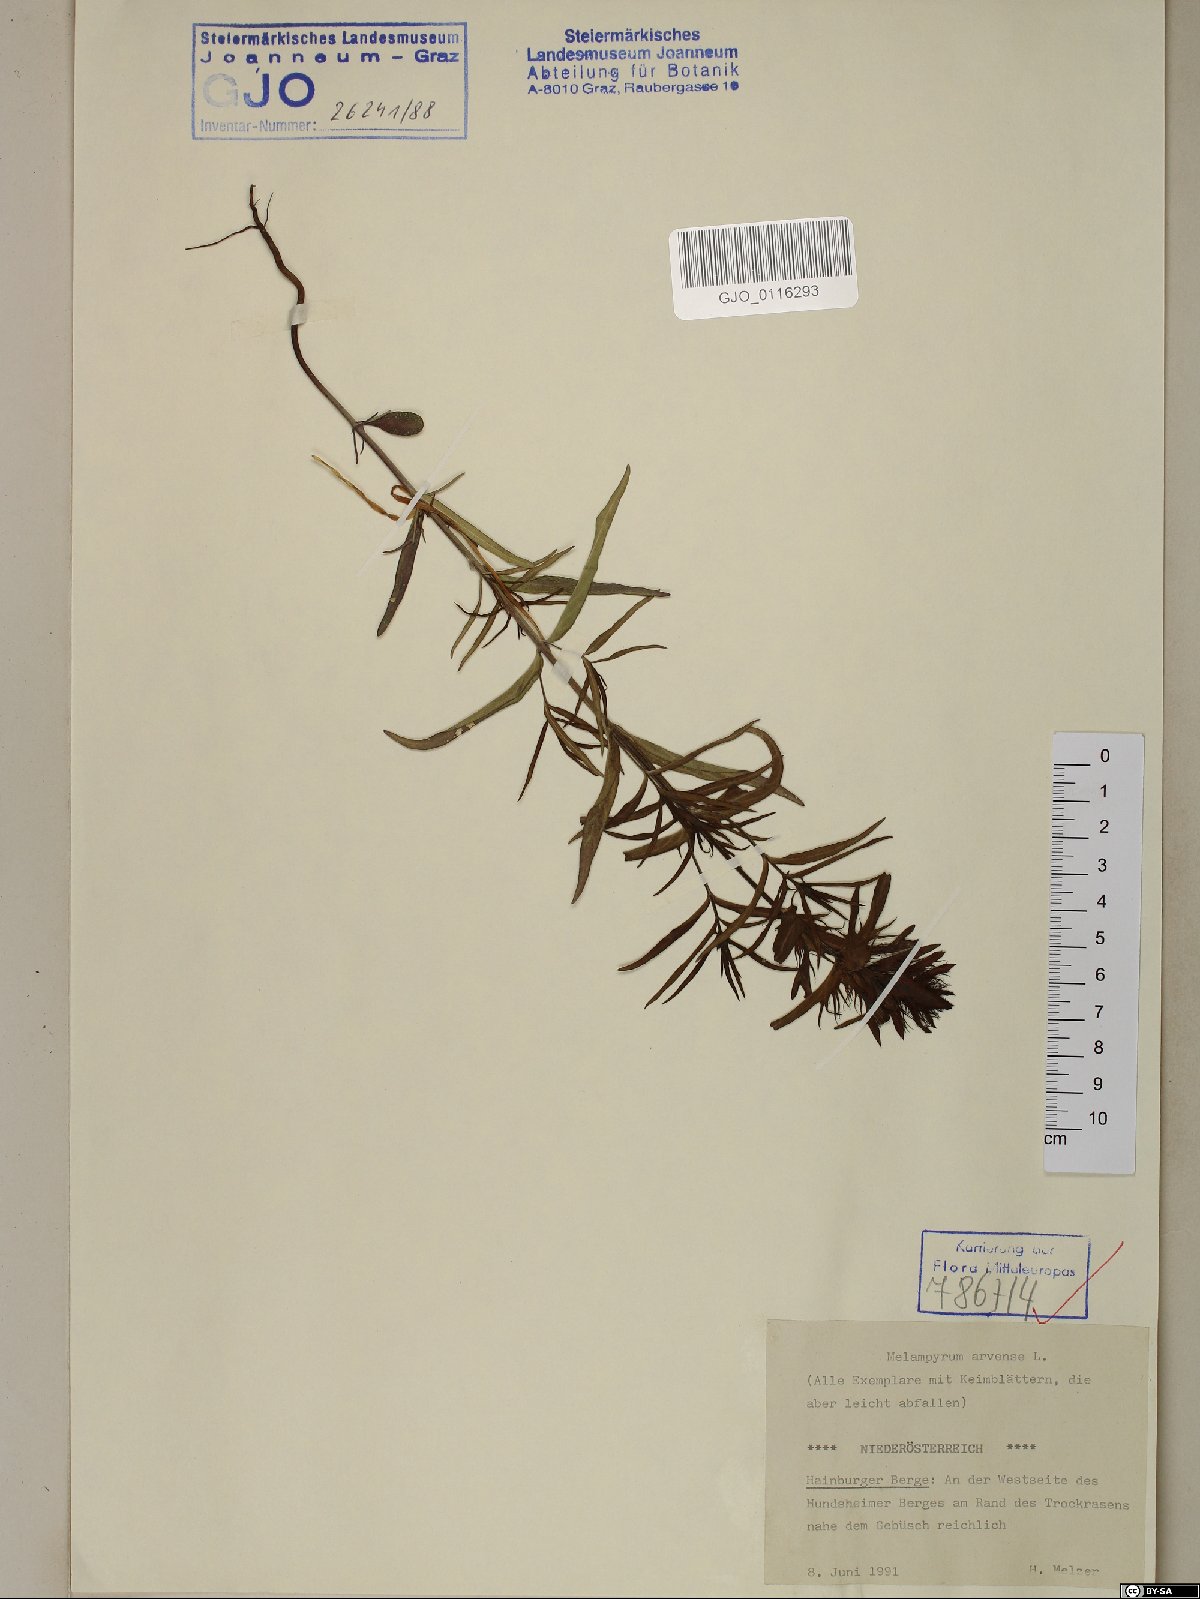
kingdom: Plantae
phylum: Tracheophyta
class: Magnoliopsida
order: Lamiales
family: Orobanchaceae
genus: Melampyrum
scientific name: Melampyrum arvense
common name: Field cow-wheat
